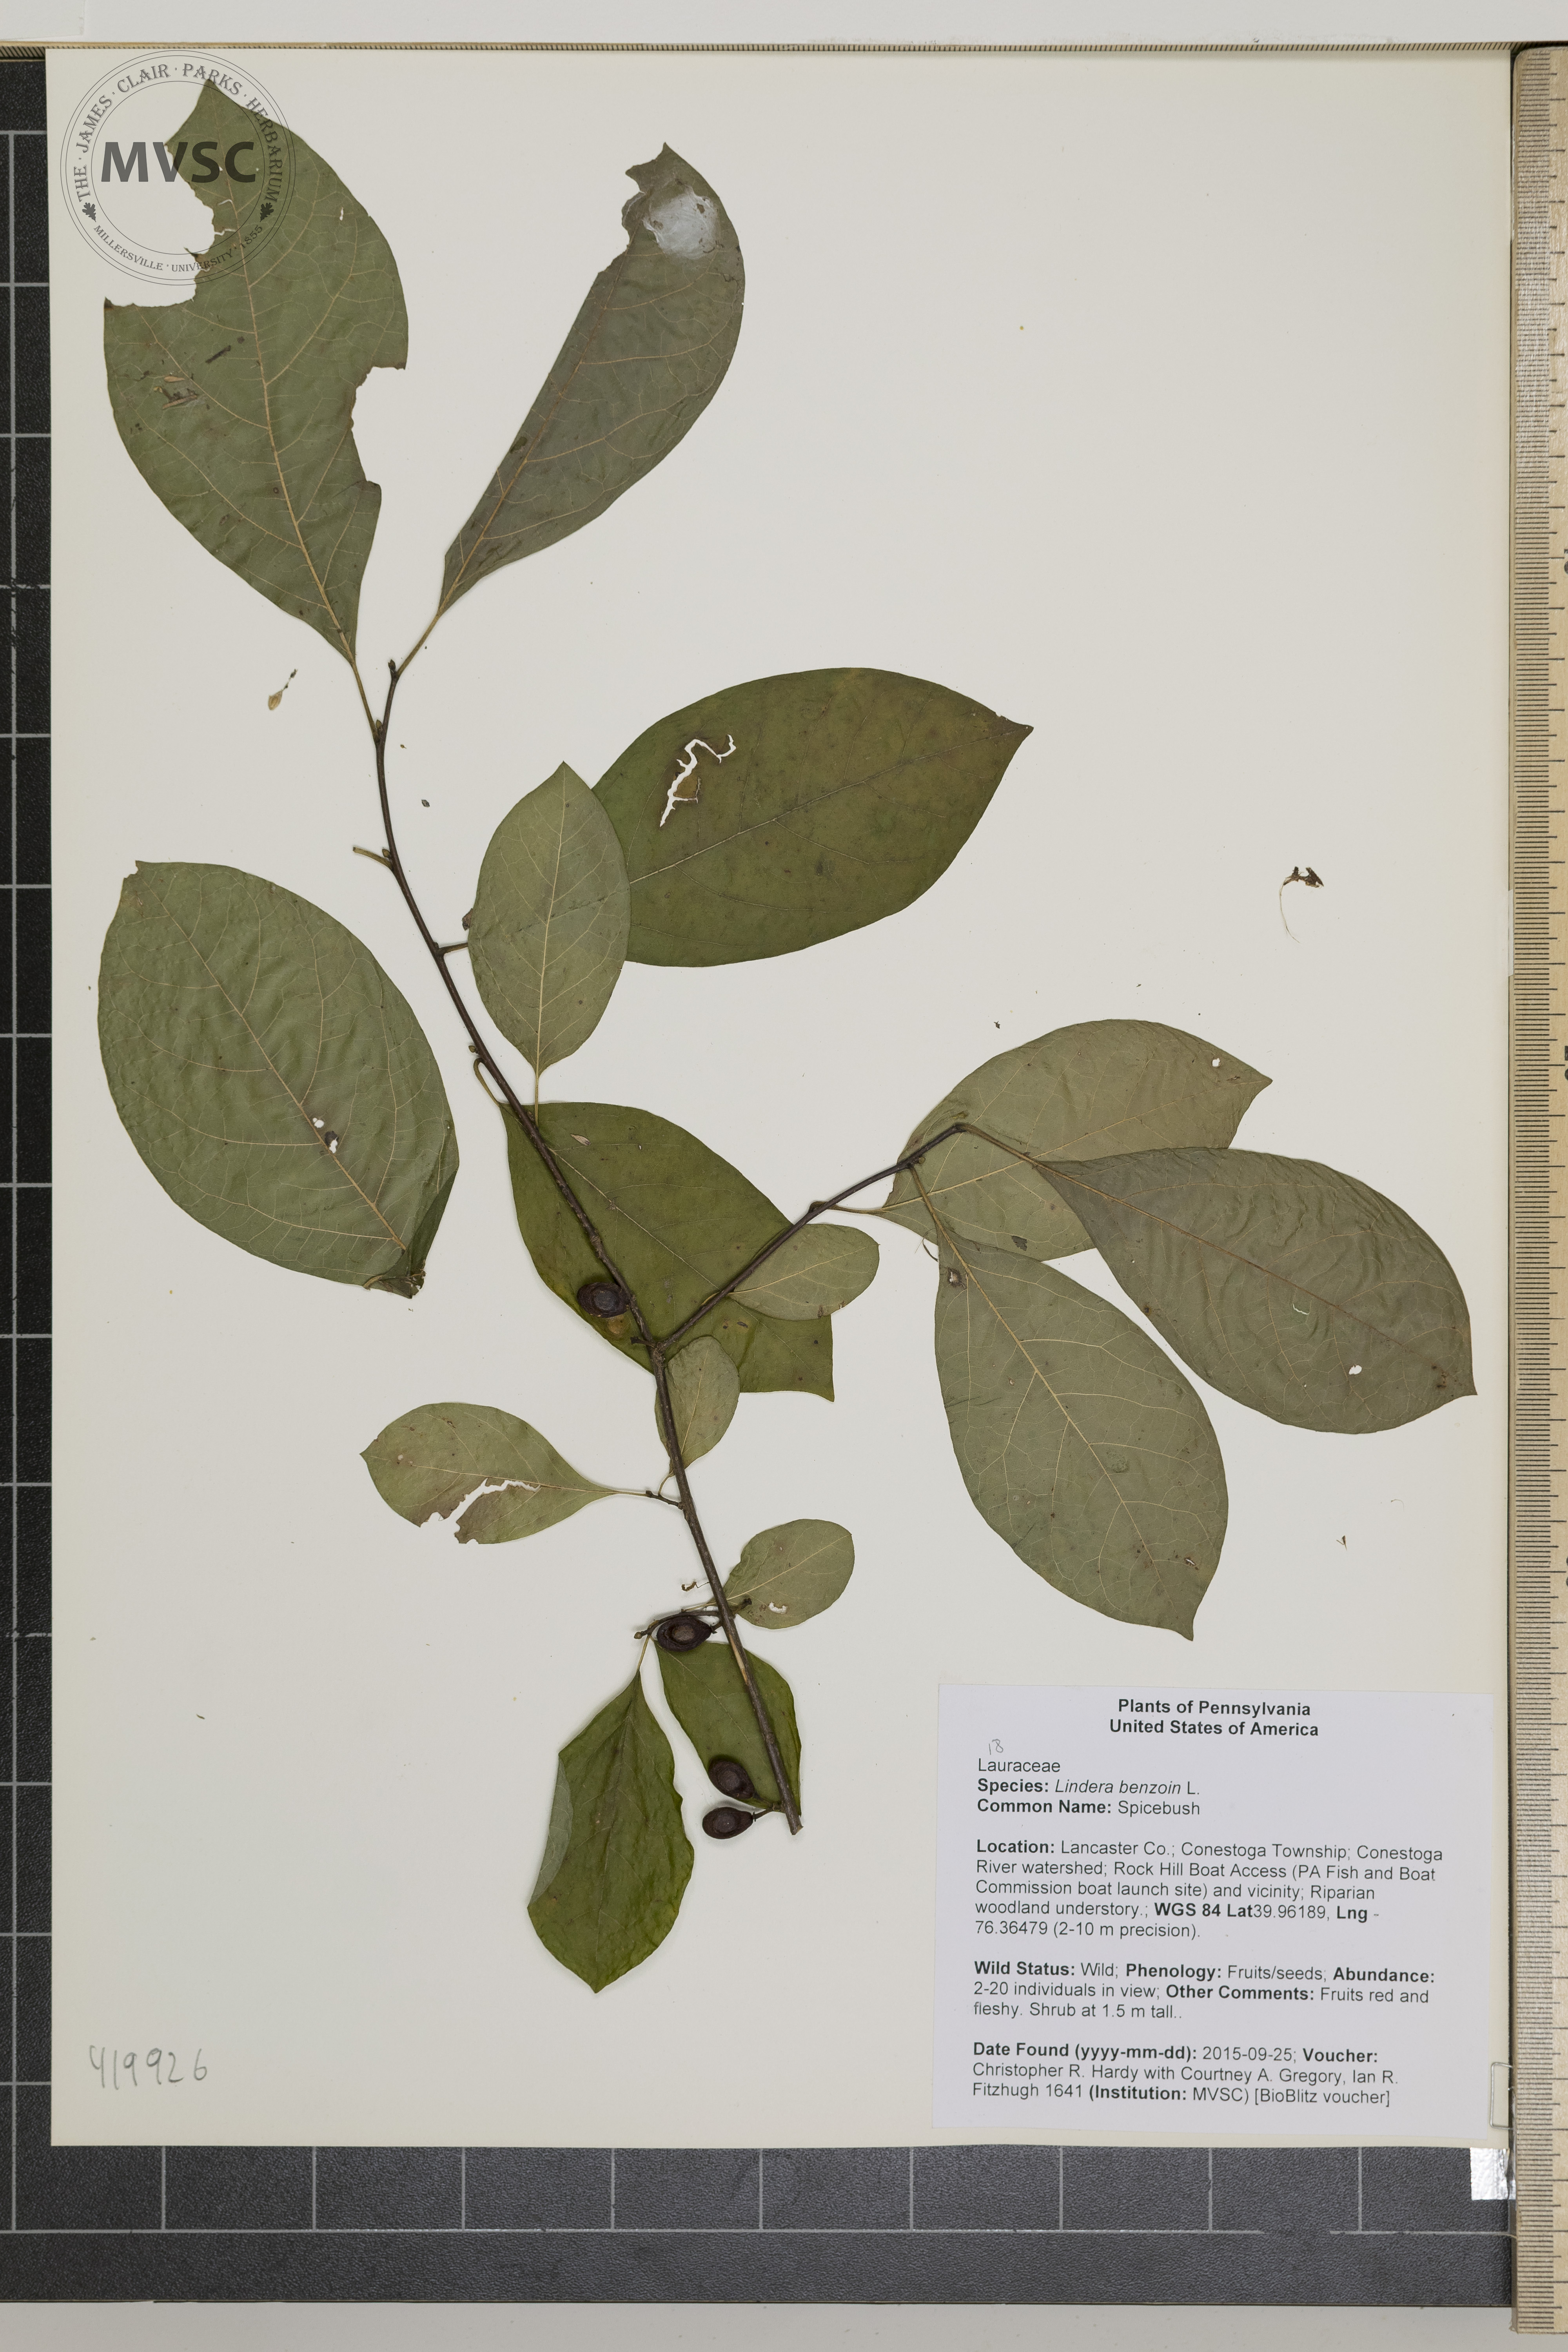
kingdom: Plantae
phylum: Tracheophyta
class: Magnoliopsida
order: Laurales
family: Lauraceae
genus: Lindera
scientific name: Lindera benzoin
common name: Spicebush
